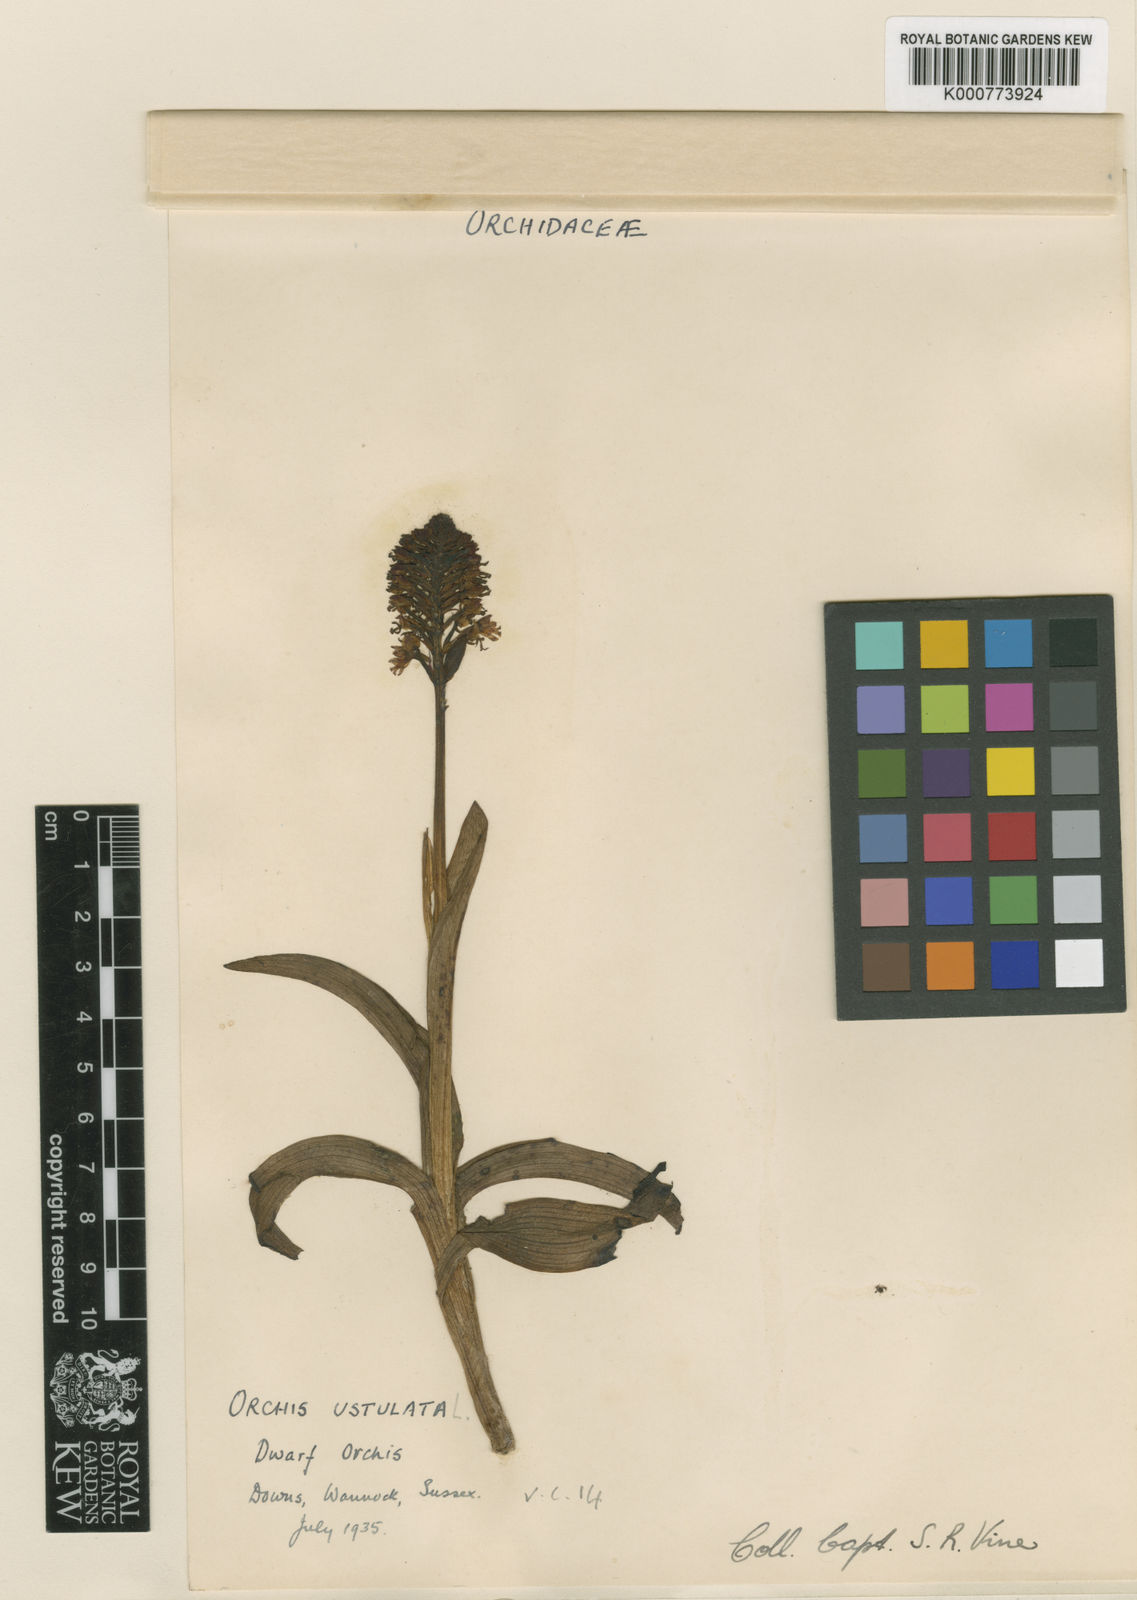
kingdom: Plantae
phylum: Tracheophyta
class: Liliopsida
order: Asparagales
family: Orchidaceae
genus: Neotinea
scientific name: Neotinea ustulata
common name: Burnt orchid
